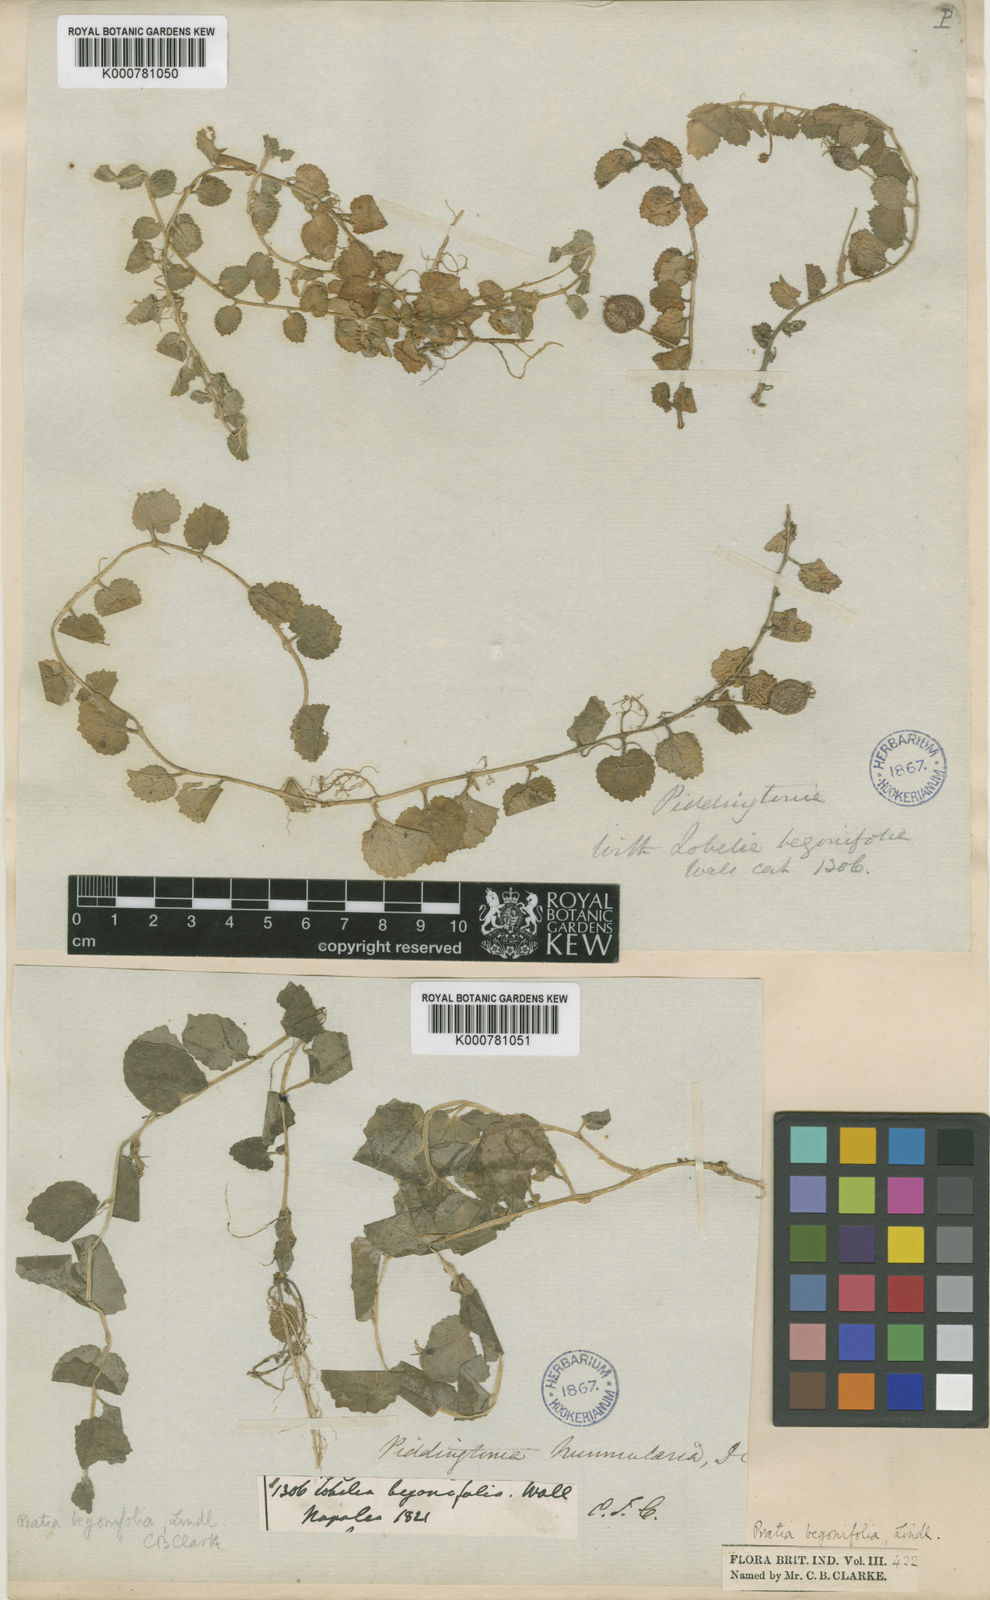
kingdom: Plantae
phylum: Tracheophyta
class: Magnoliopsida
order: Asterales
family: Campanulaceae
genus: Lobelia
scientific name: Lobelia angulata
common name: Lawn lobelia
